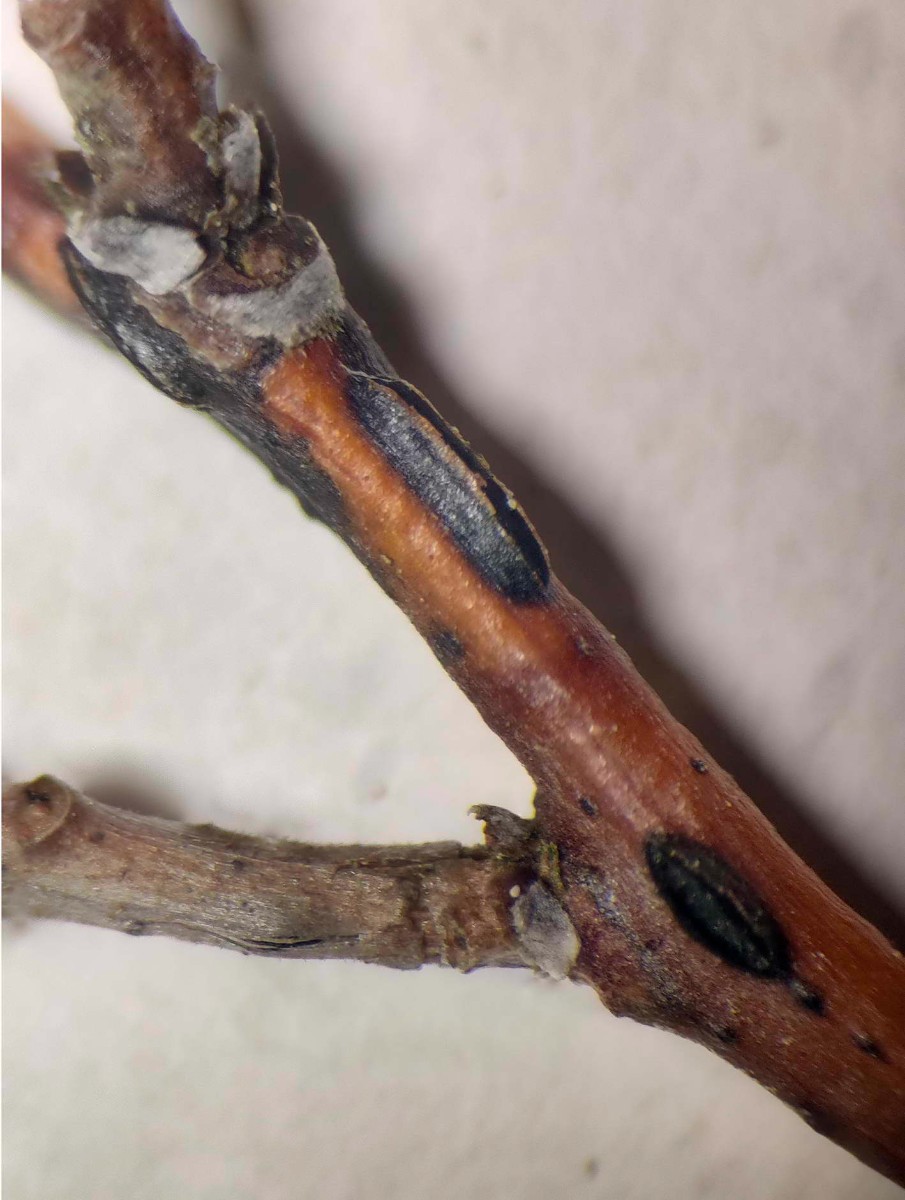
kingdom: Fungi
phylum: Ascomycota
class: Leotiomycetes
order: Rhytismatales
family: Rhytismataceae
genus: Sporomega
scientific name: Sporomega degenerans
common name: bølle-sprækkeskive
